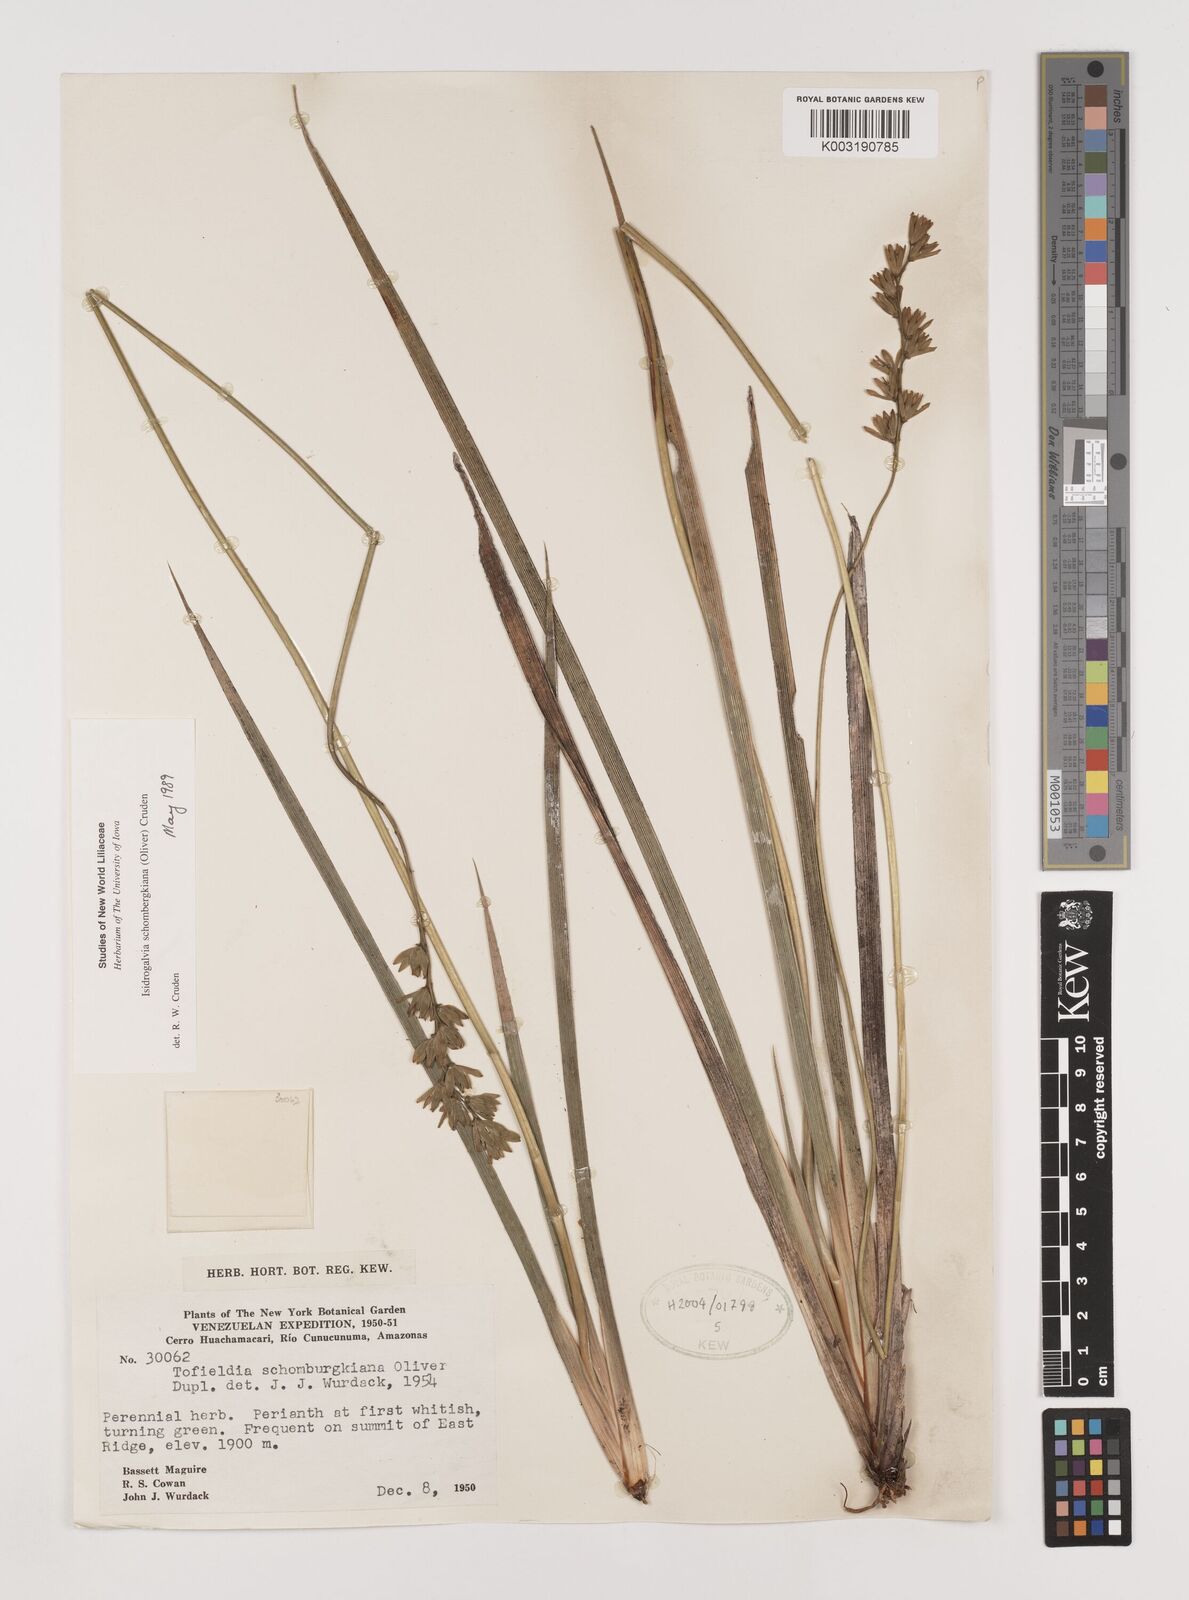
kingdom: Plantae
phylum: Tracheophyta
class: Liliopsida
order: Alismatales
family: Tofieldiaceae
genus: Harperocallis
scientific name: Harperocallis schomburgkiana
